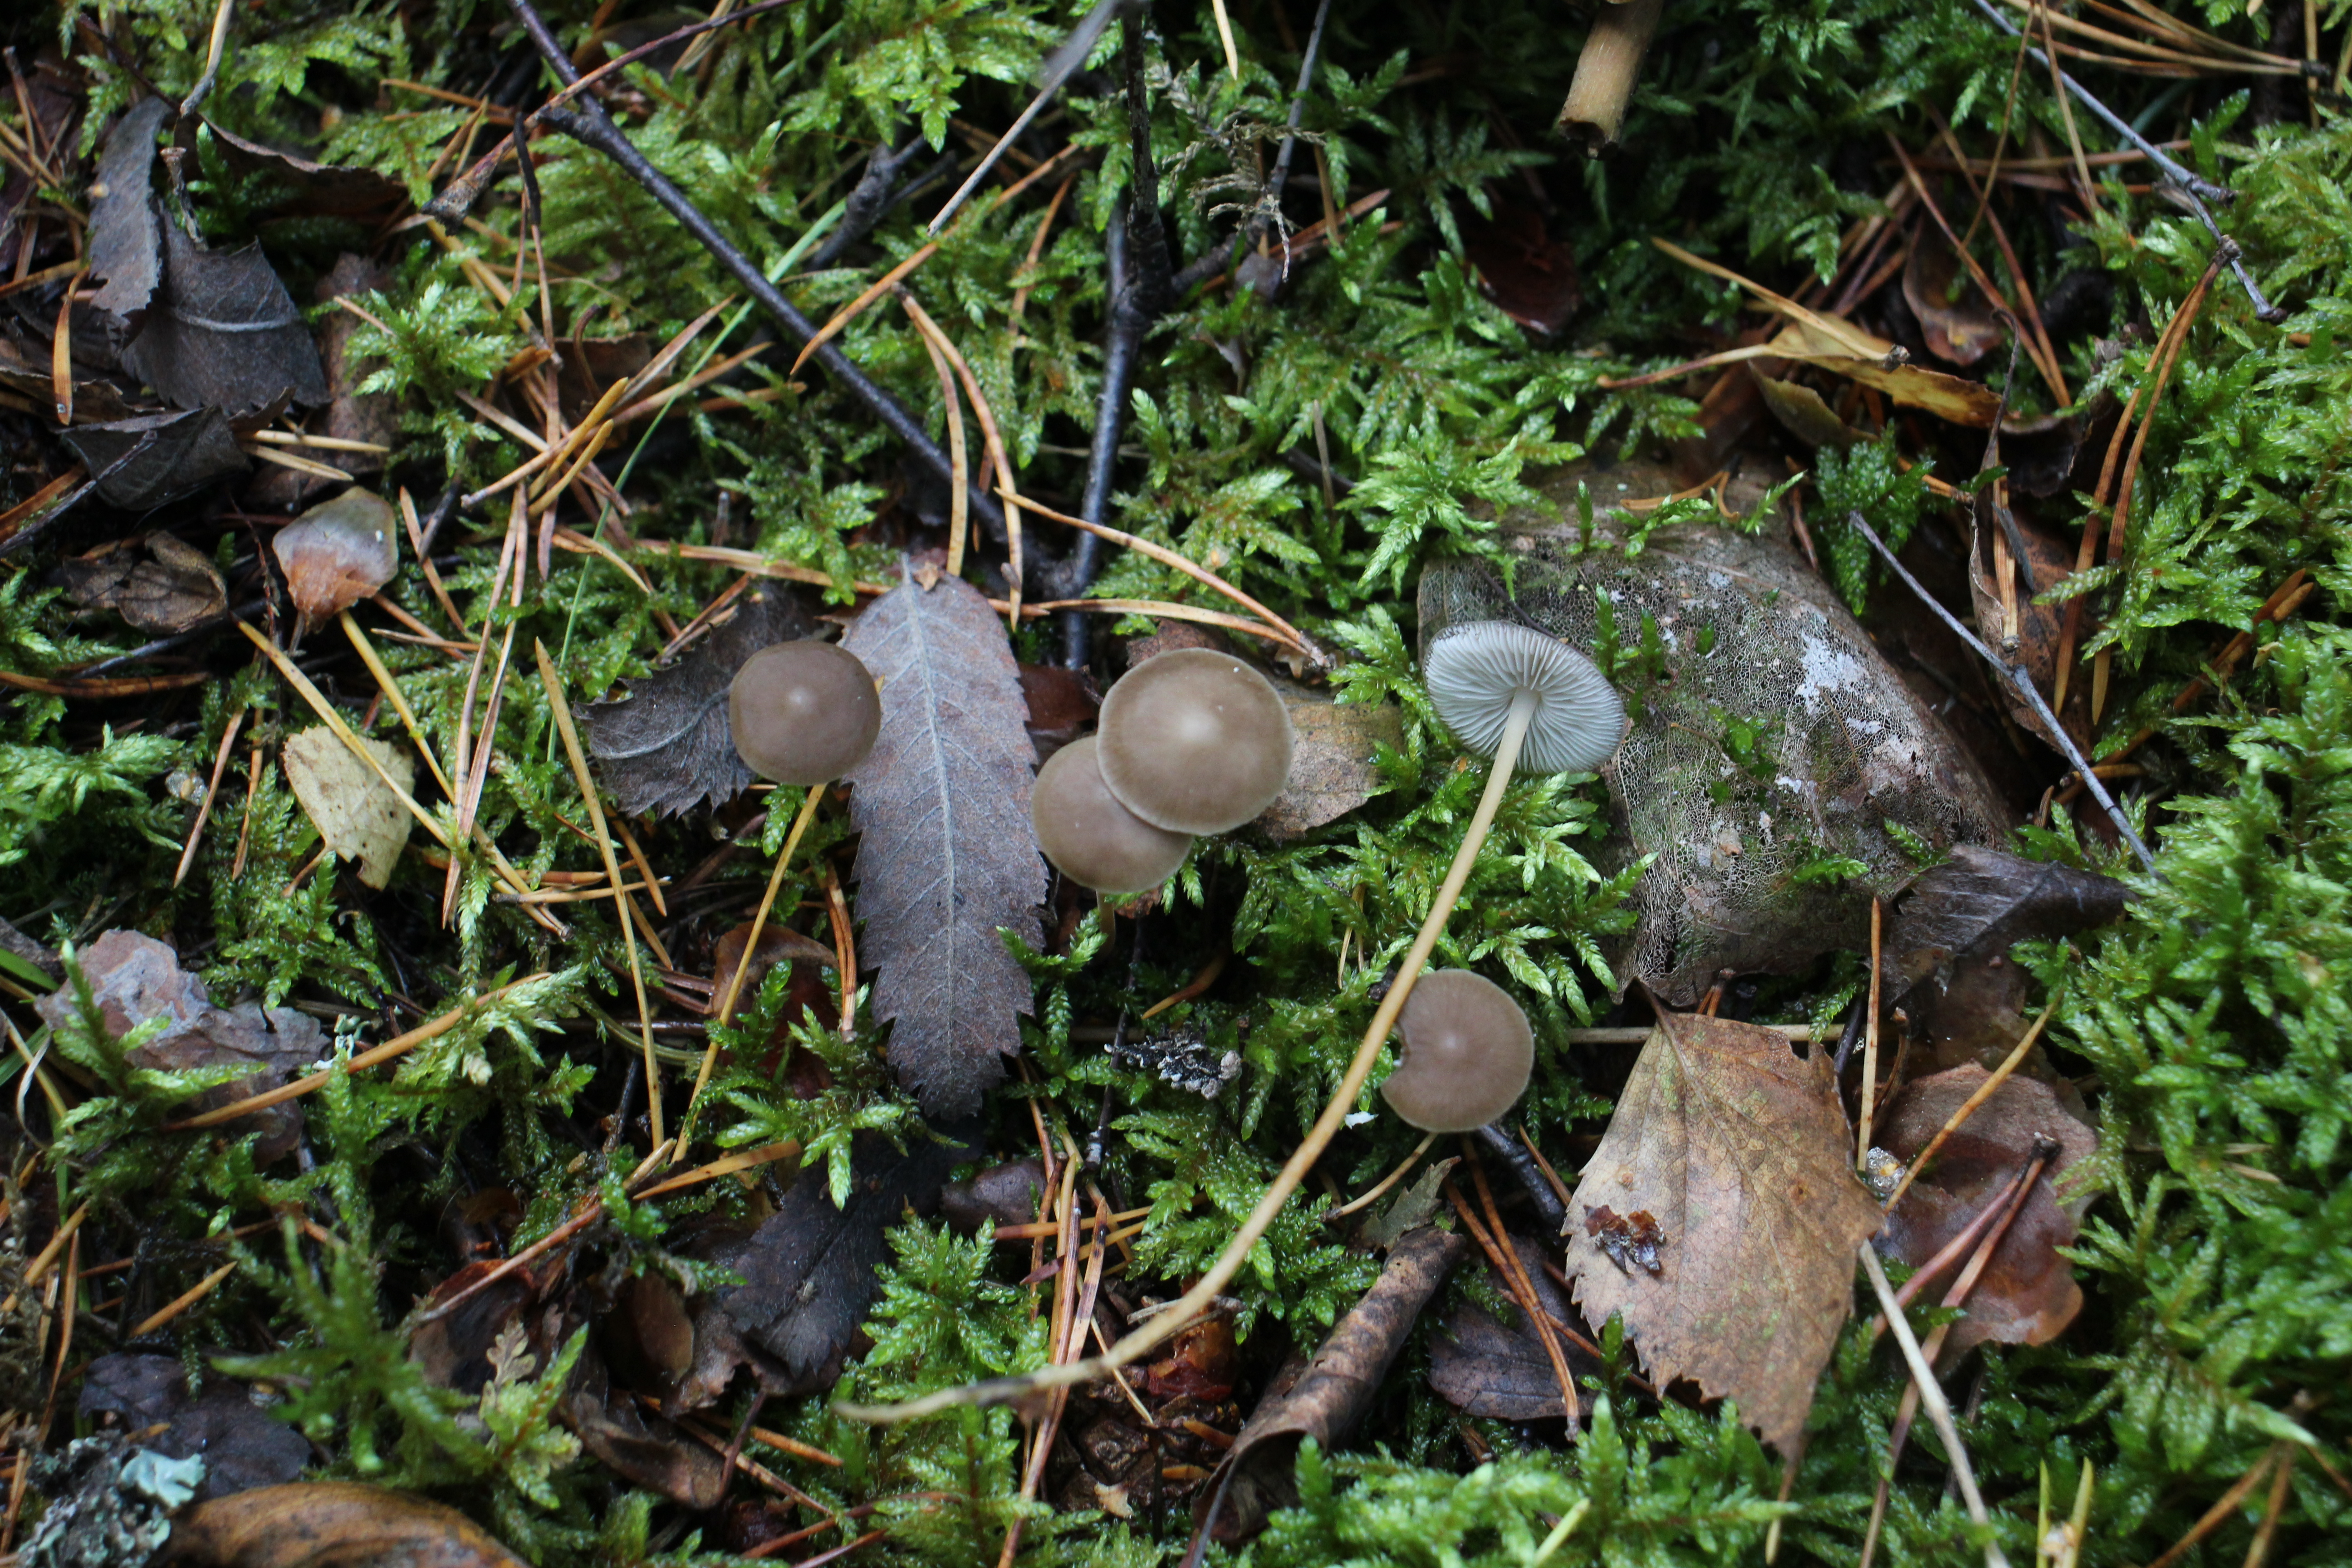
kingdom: Fungi
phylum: Basidiomycota
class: Agaricomycetes
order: Agaricales
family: Physalacriaceae
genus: Strobilurus
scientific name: Strobilurus esculentus
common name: Sprucecone cap
